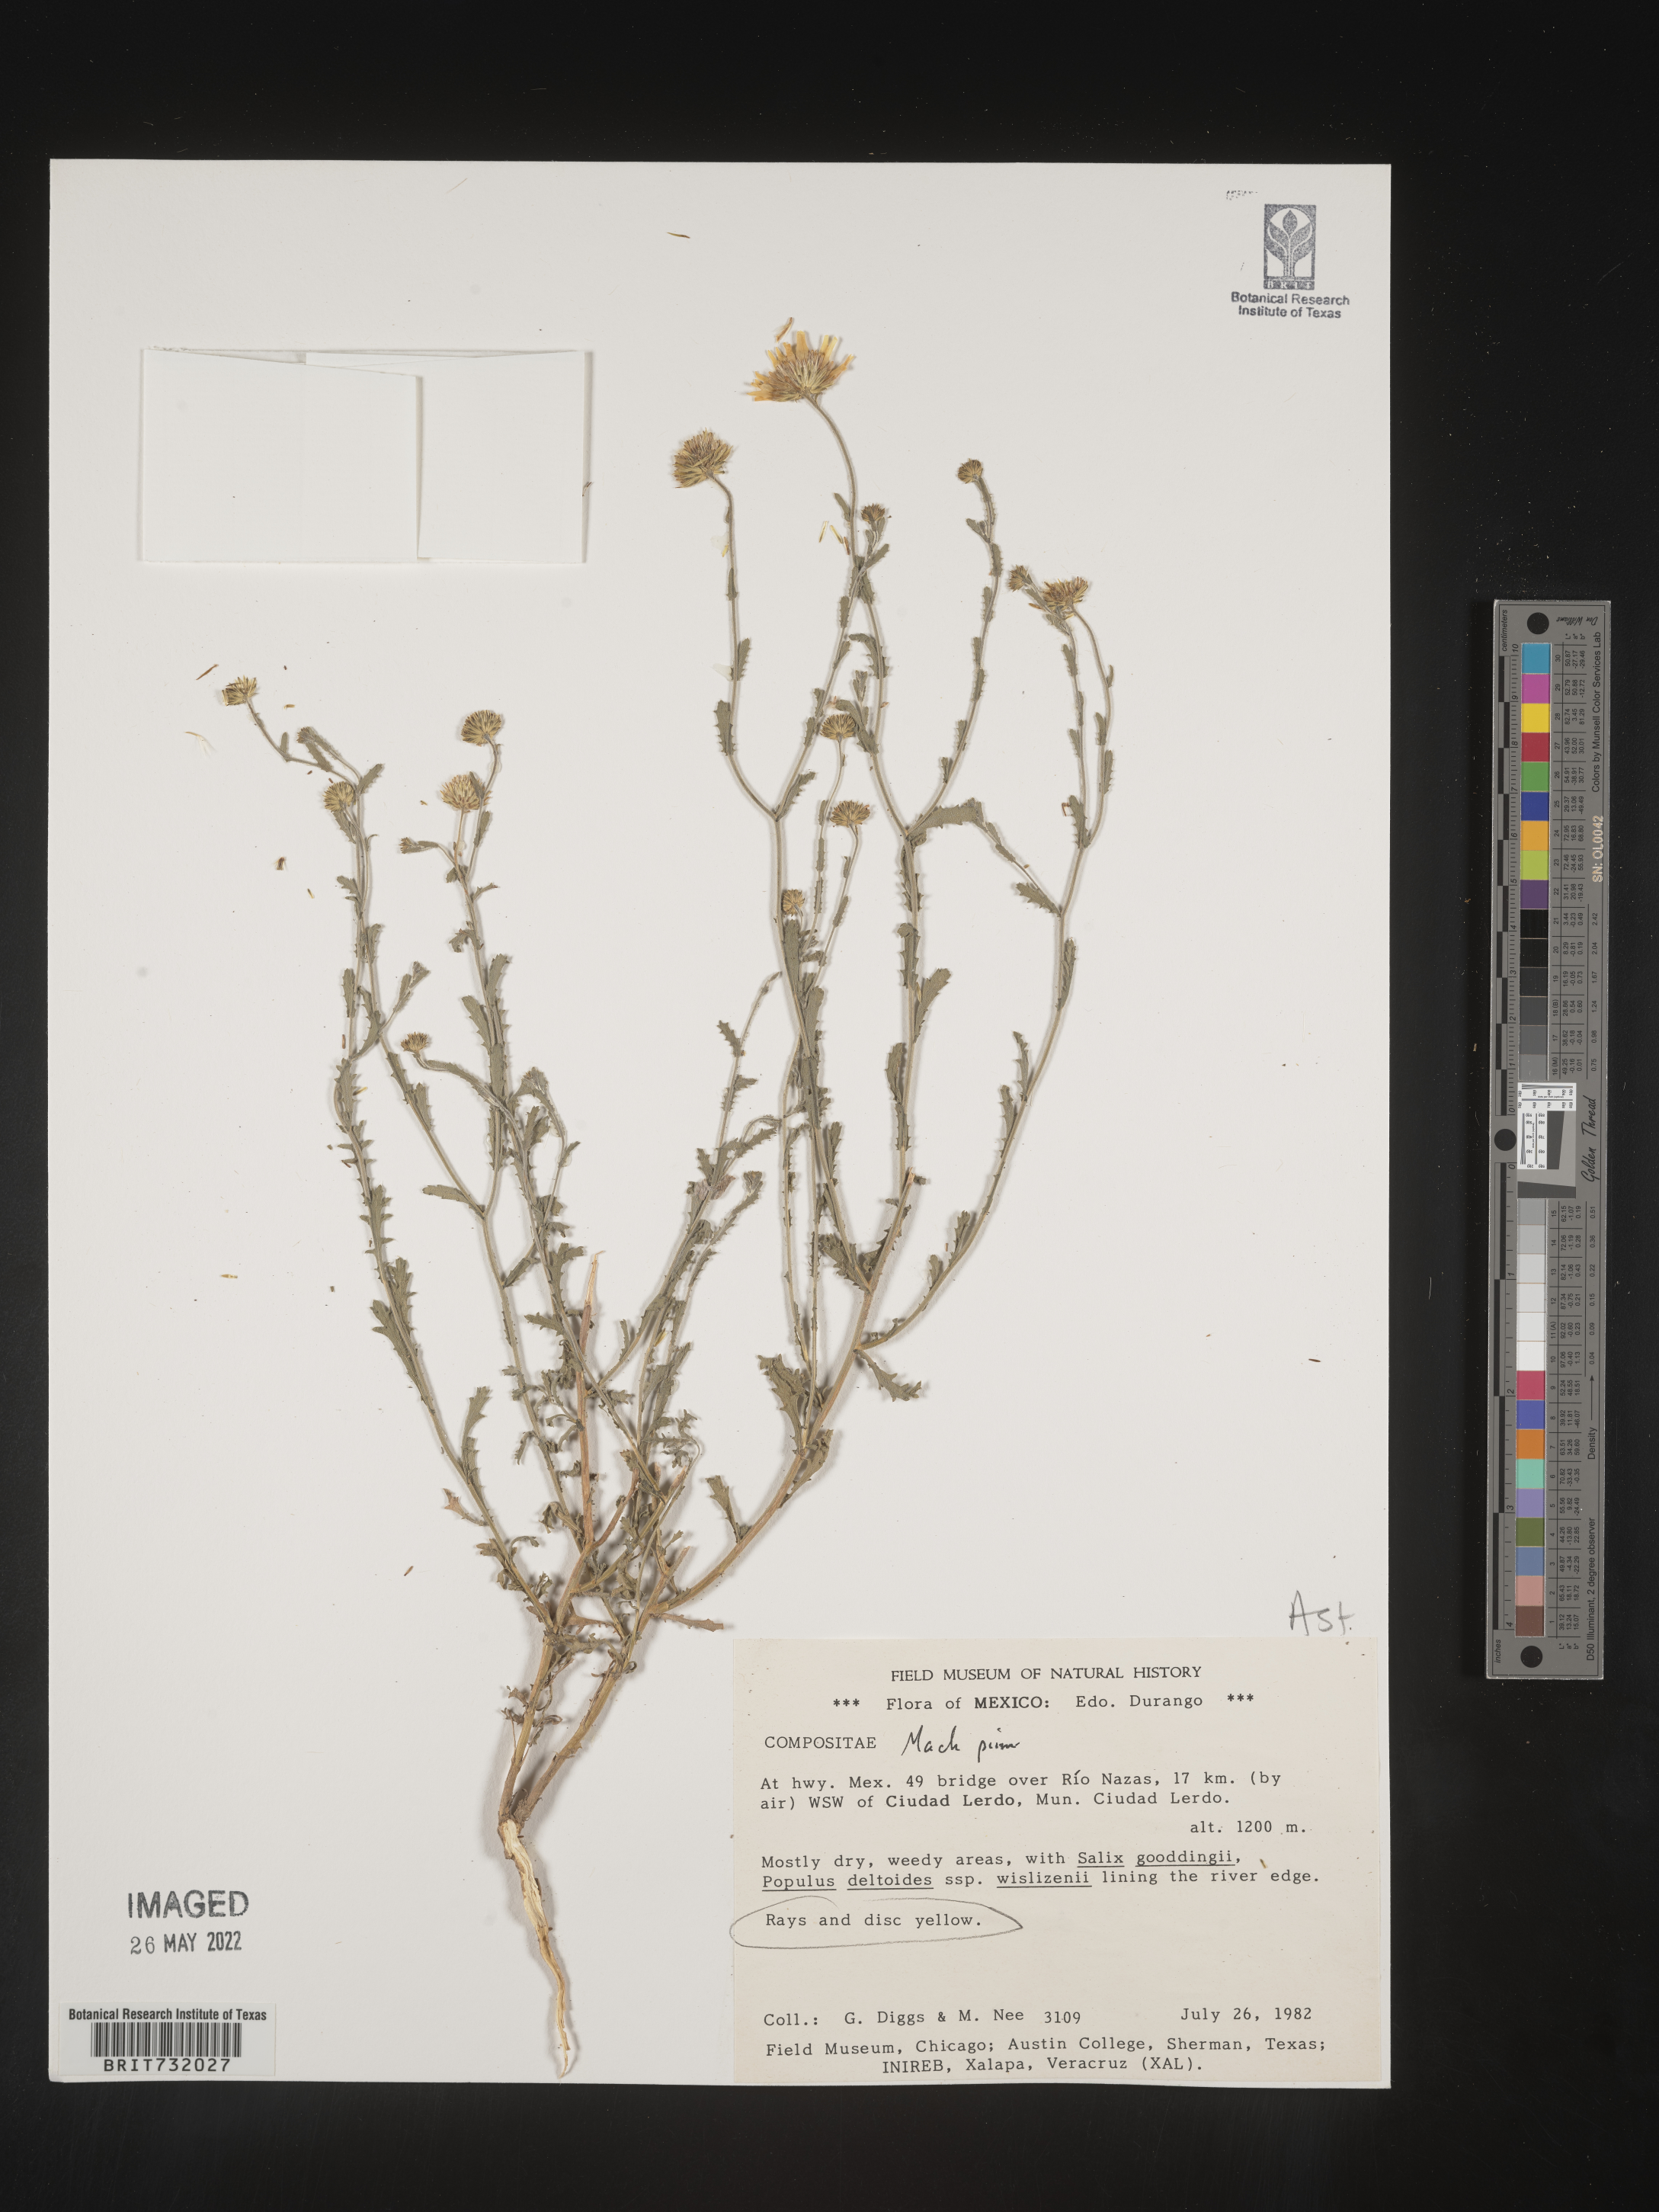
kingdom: Plantae
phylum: Tracheophyta
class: Magnoliopsida
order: Asterales
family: Asteraceae
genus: Xanthisma
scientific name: Xanthisma spinulosum
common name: Spiny goldenweed
